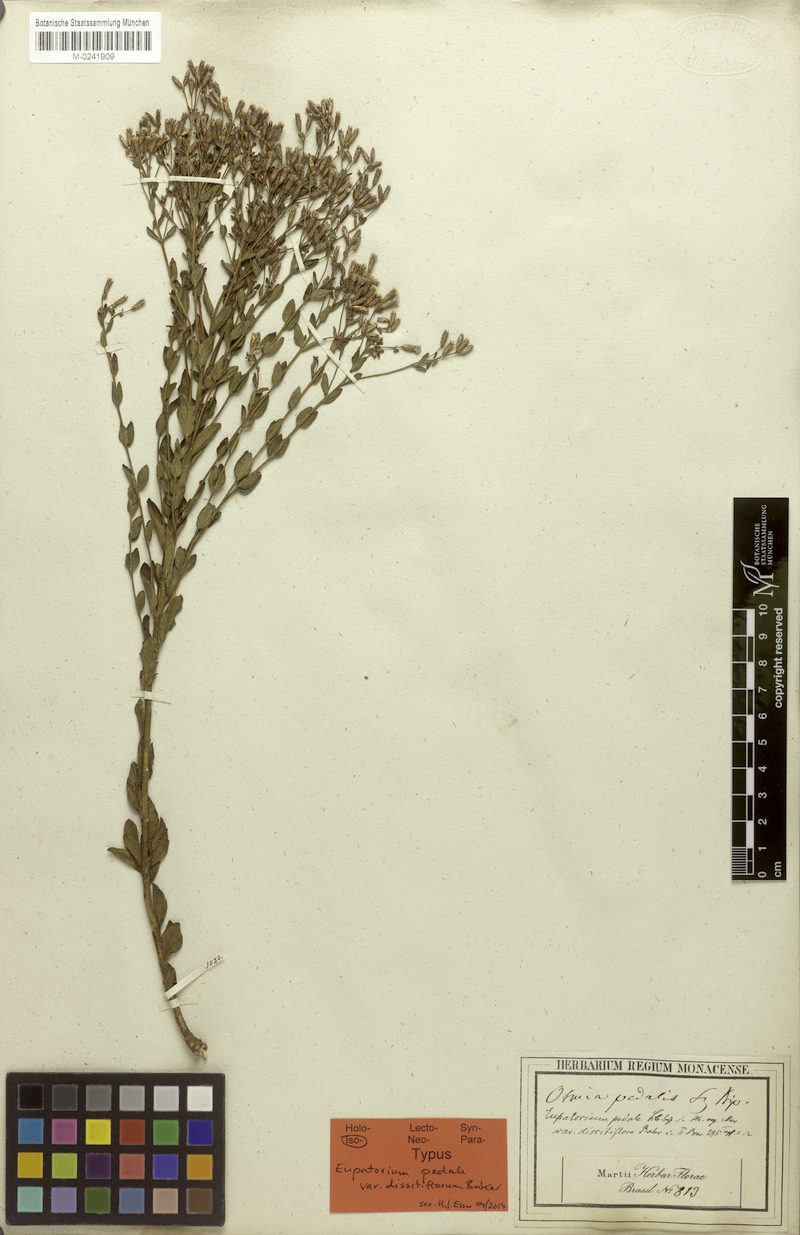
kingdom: Plantae
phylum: Tracheophyta
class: Magnoliopsida
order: Asterales
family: Asteraceae
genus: Chromolaena
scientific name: Chromolaena pedalis
